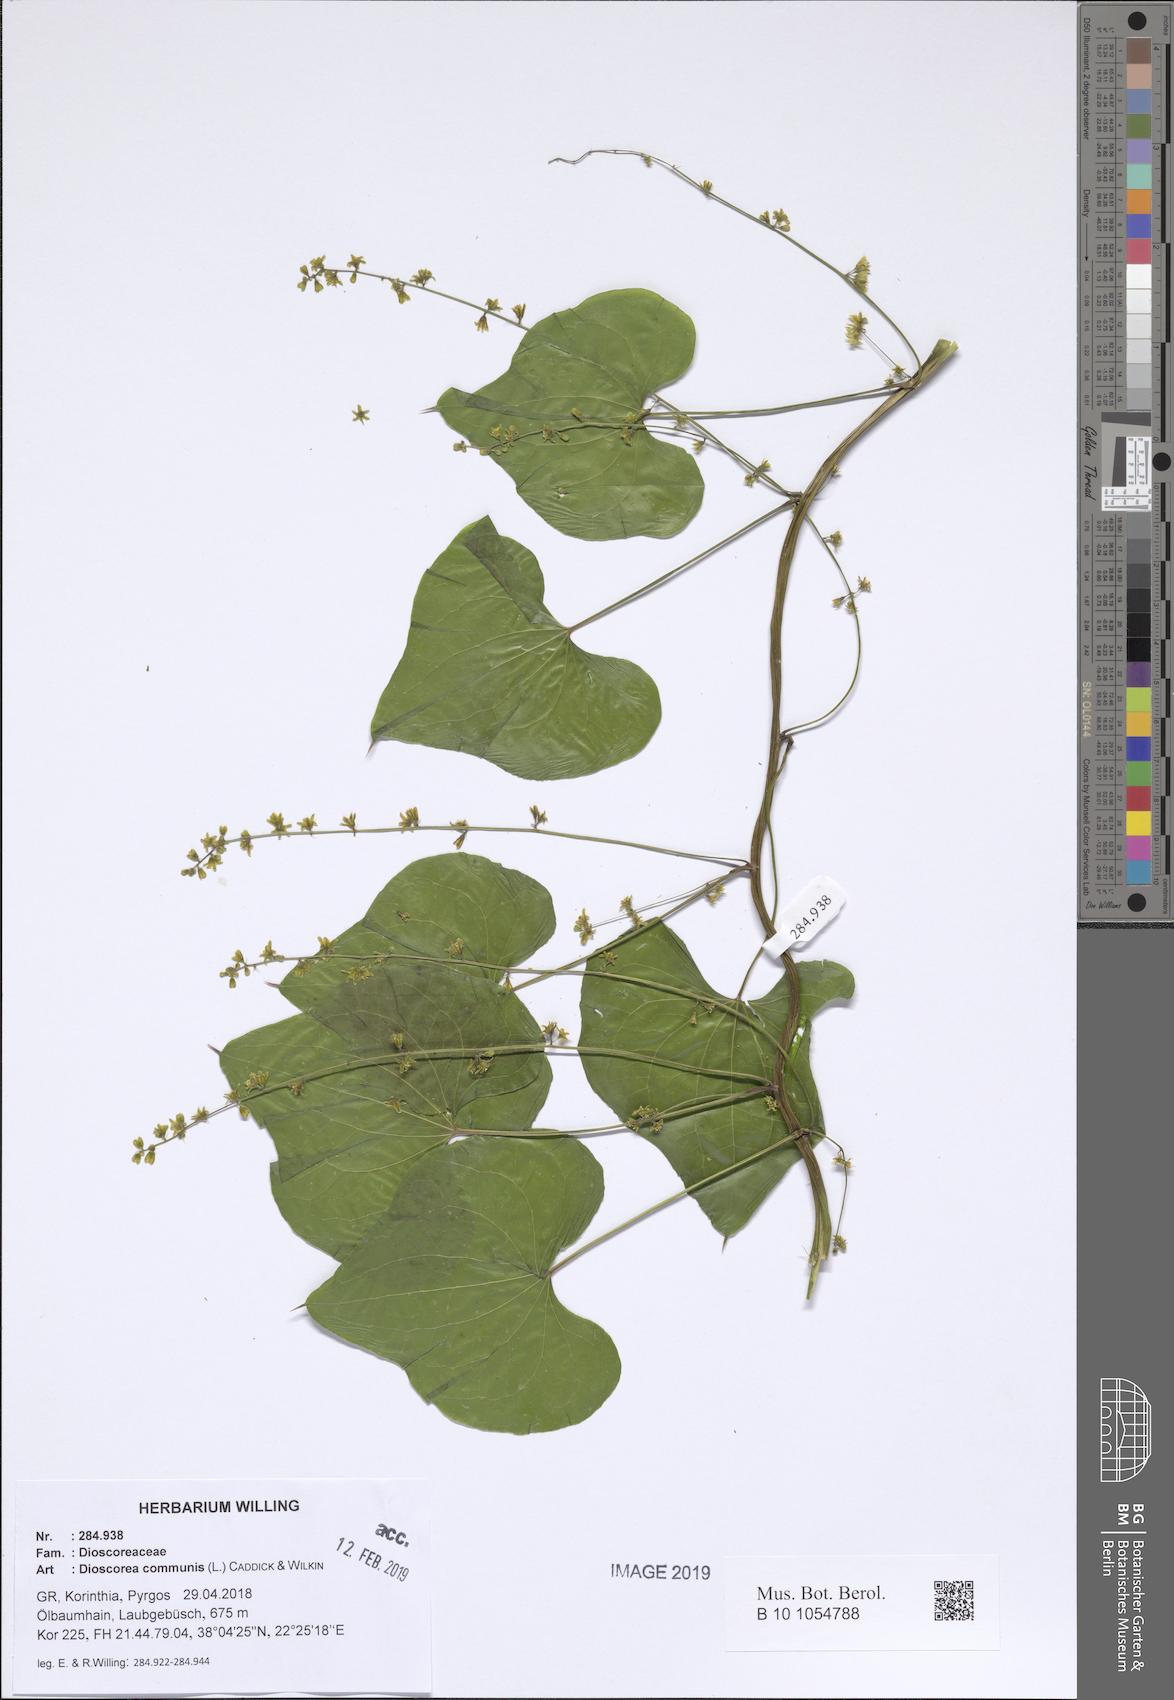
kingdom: Plantae
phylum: Tracheophyta
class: Liliopsida
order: Dioscoreales
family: Dioscoreaceae
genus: Dioscorea
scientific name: Dioscorea communis
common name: Black-bindweed
